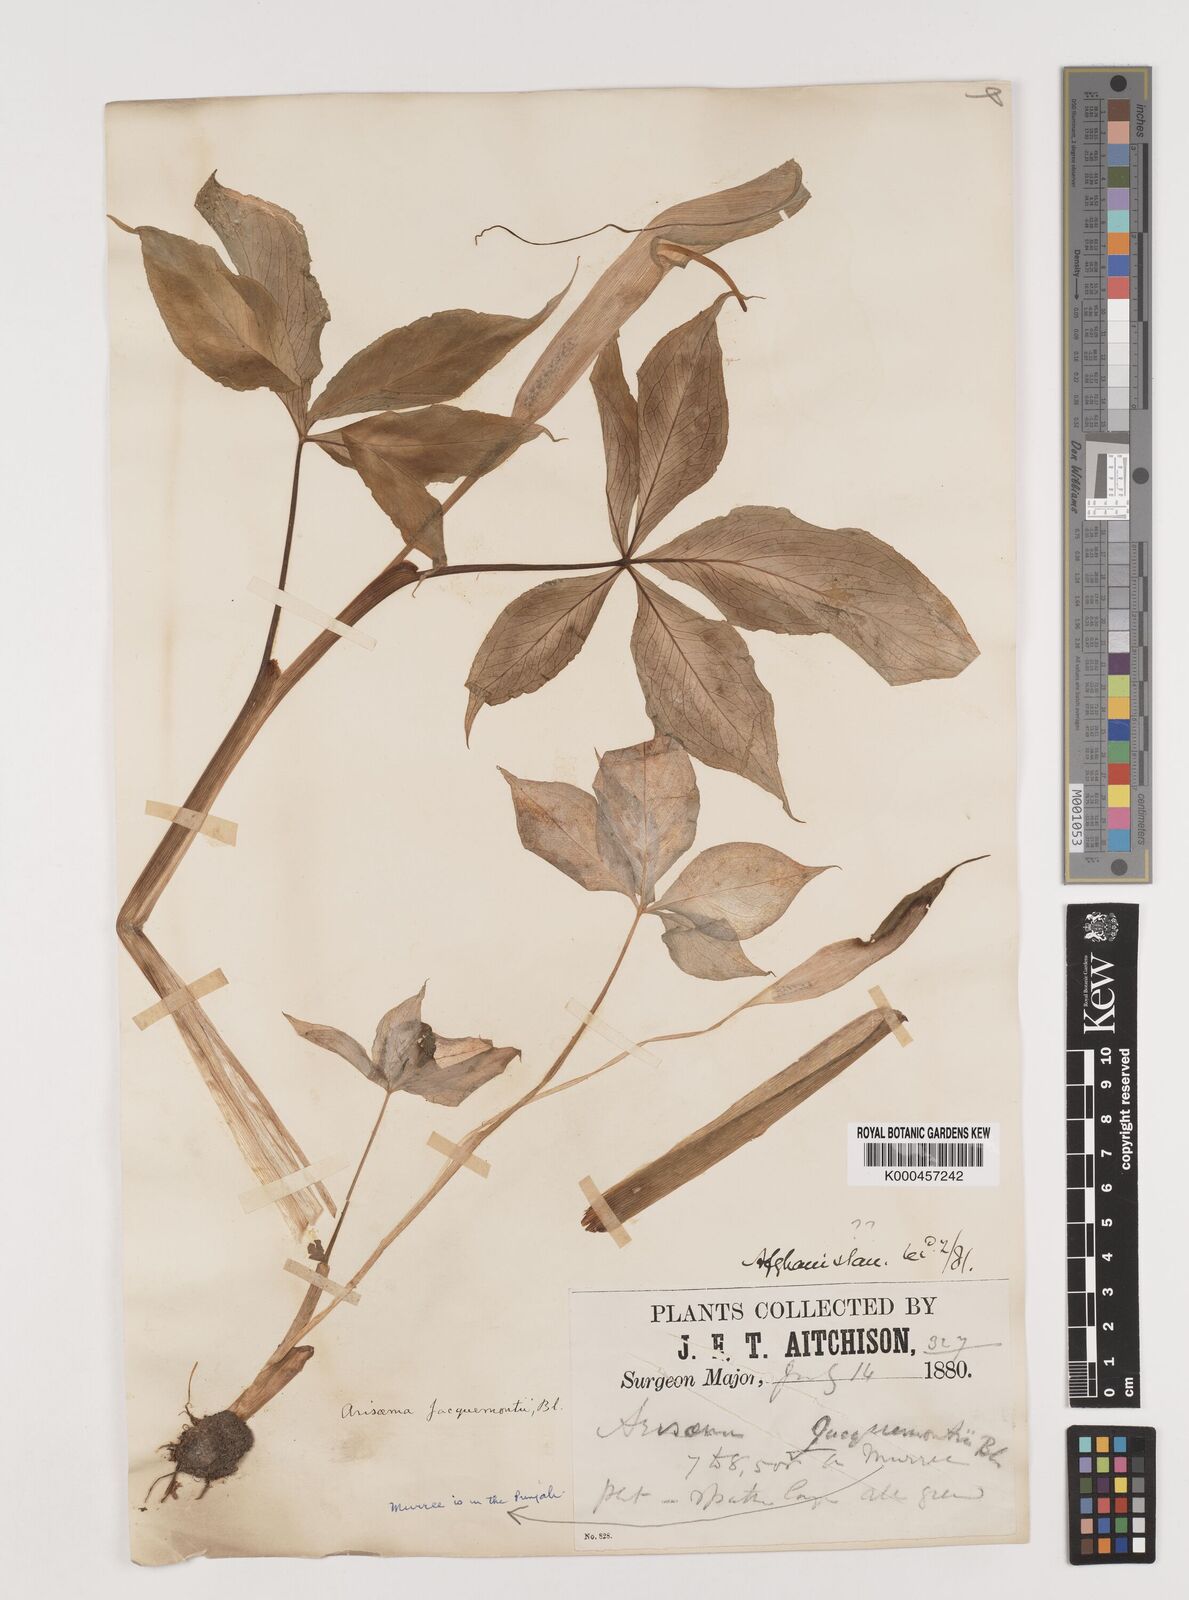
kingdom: Plantae
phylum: Tracheophyta
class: Liliopsida
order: Alismatales
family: Araceae
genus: Arisaema
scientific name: Arisaema jacquemontii
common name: Jacquemont's cobra-lily
